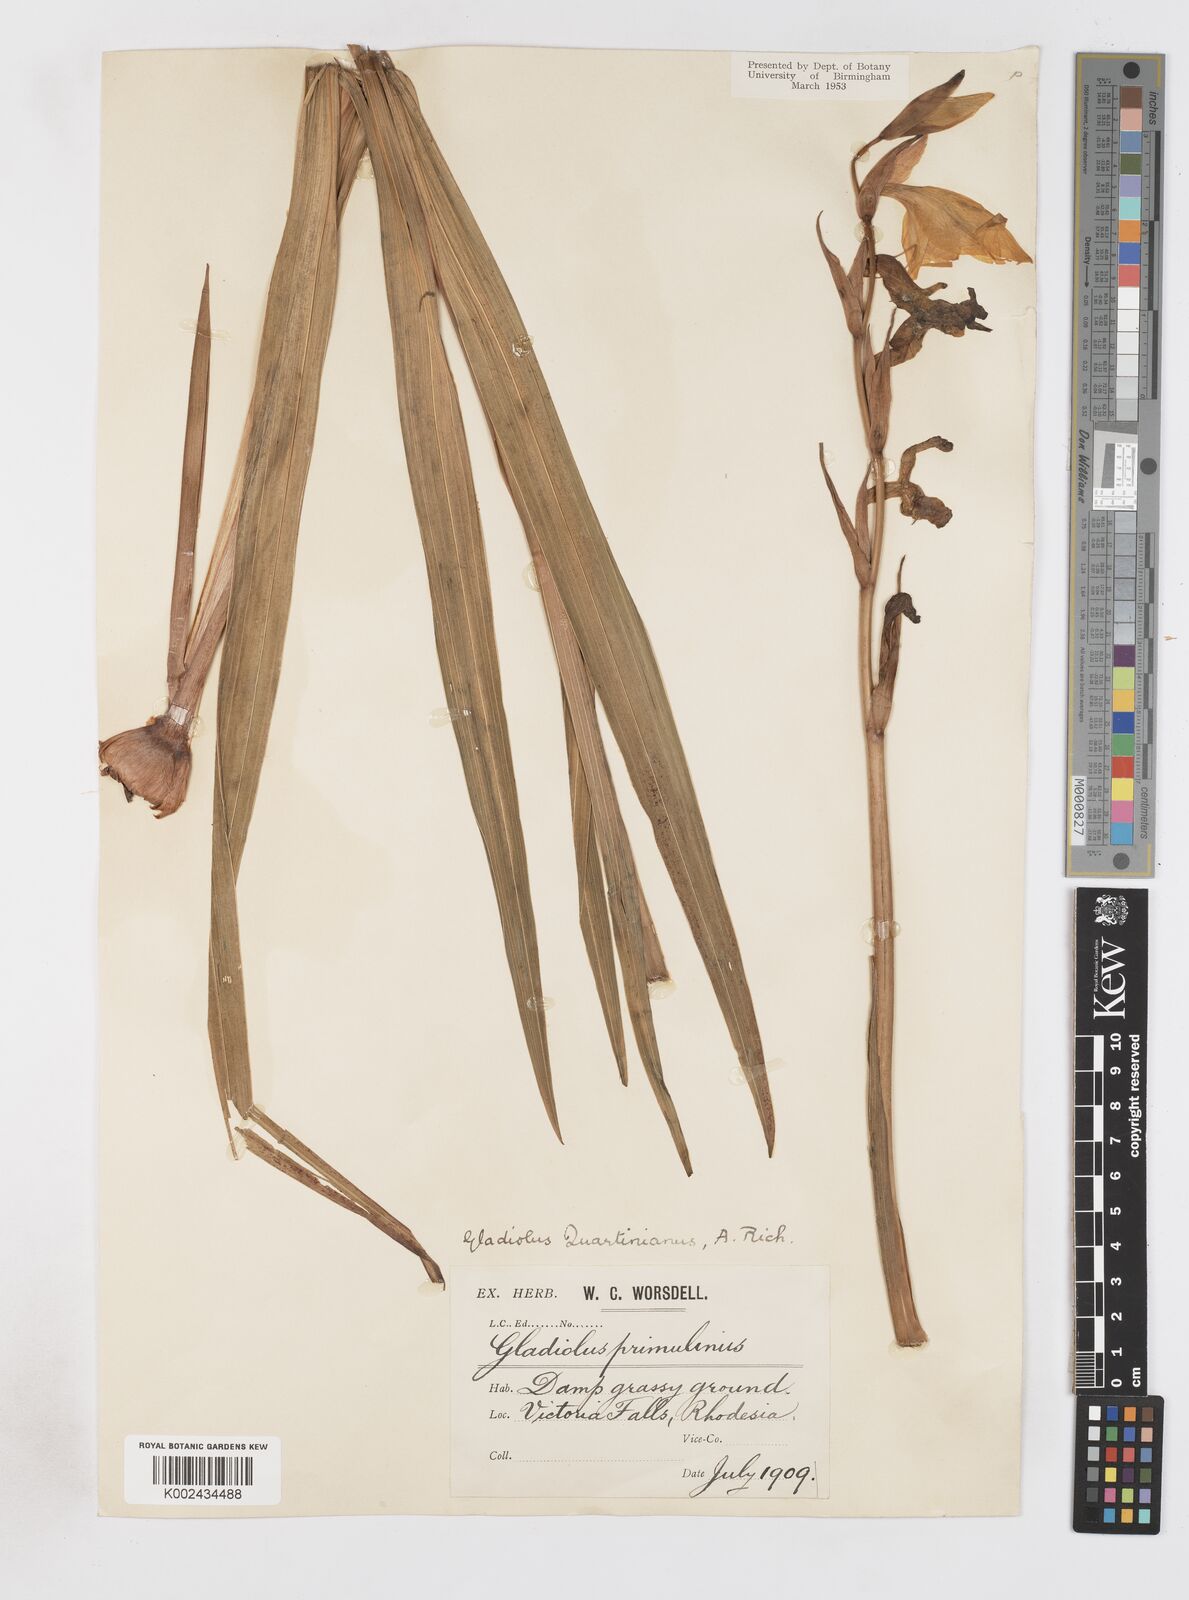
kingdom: Plantae
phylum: Tracheophyta
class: Liliopsida
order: Asparagales
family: Iridaceae
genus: Gladiolus
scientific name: Gladiolus dalenii
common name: Cornflag
